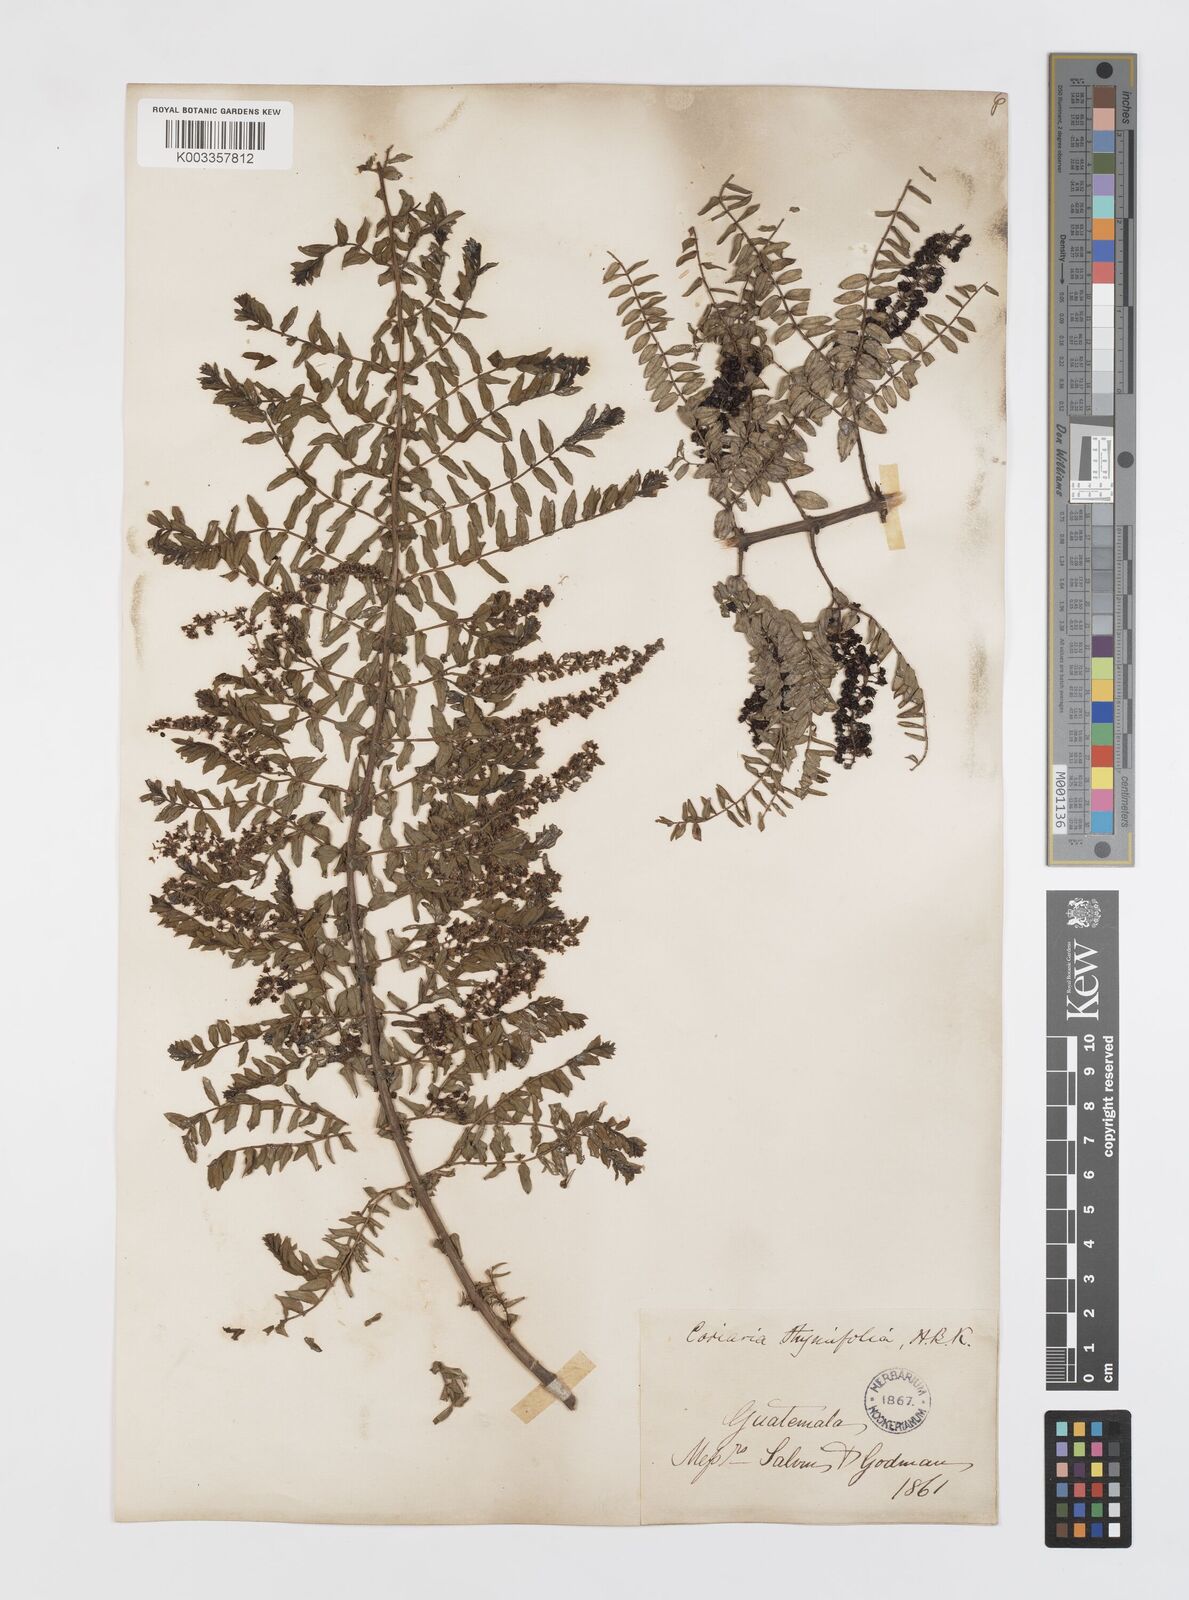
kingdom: Plantae
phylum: Tracheophyta
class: Magnoliopsida
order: Cucurbitales
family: Coriariaceae
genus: Coriaria
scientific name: Coriaria microphylla
